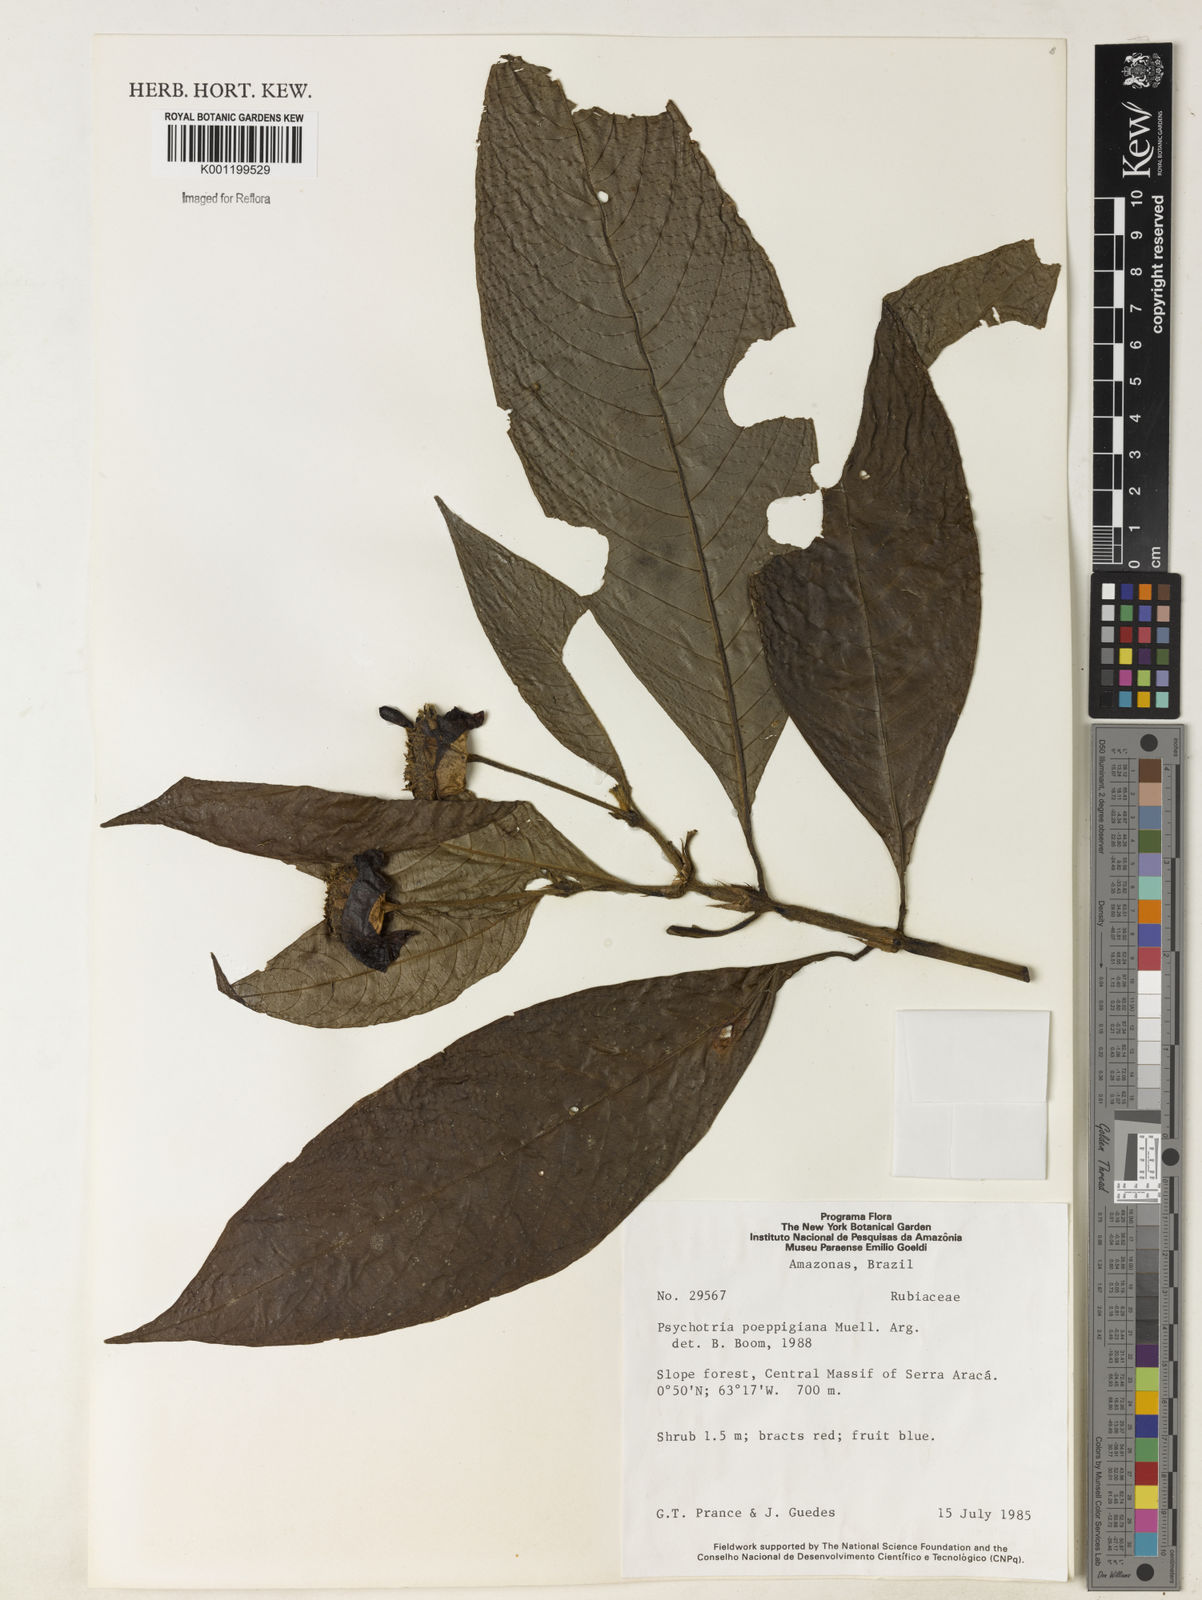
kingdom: Plantae
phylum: Tracheophyta
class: Magnoliopsida
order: Gentianales
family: Rubiaceae
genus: Psychotria
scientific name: Psychotria
